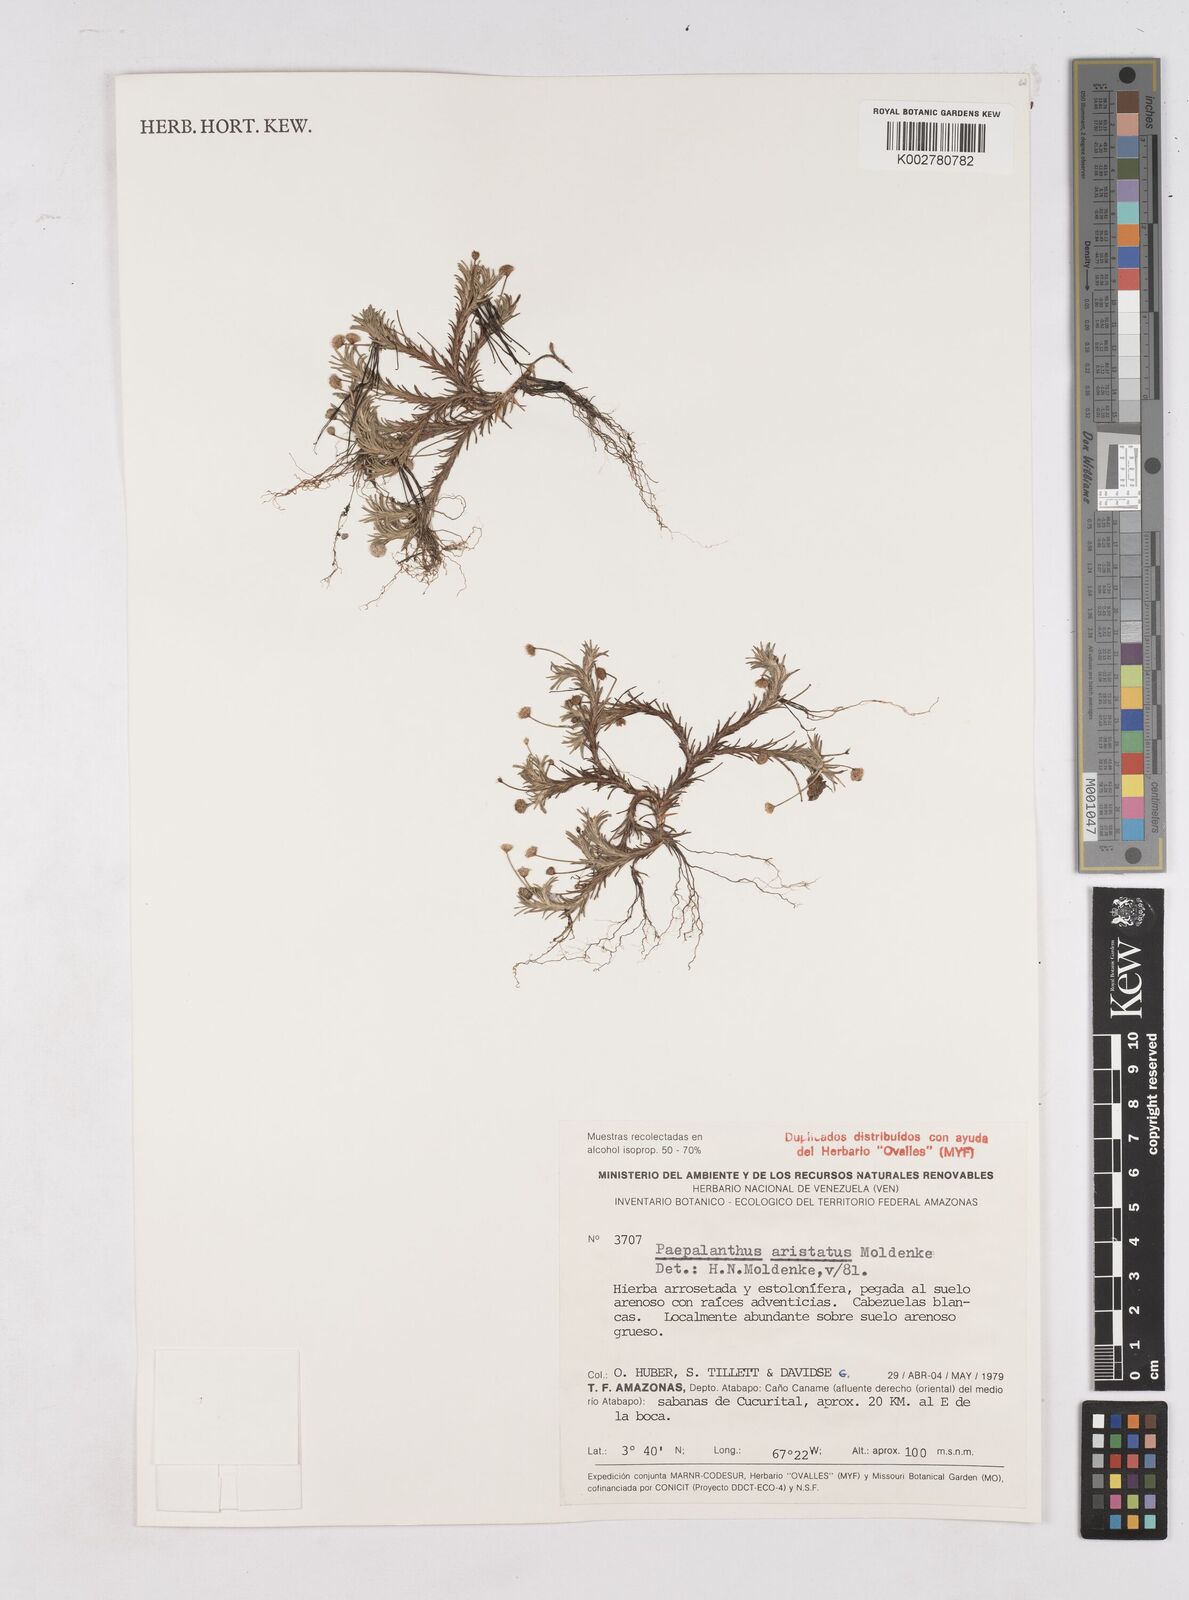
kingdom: Plantae
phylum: Tracheophyta
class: Liliopsida
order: Poales
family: Eriocaulaceae
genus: Paepalanthus
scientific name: Paepalanthus aristatus
